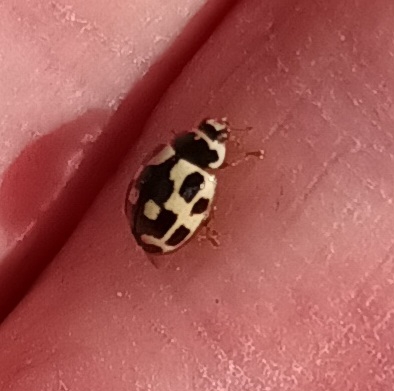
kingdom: Animalia
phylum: Arthropoda
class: Insecta
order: Coleoptera
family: Coccinellidae
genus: Propylaea
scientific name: Propylaea quatuordecimpunctata
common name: Skakbræt
